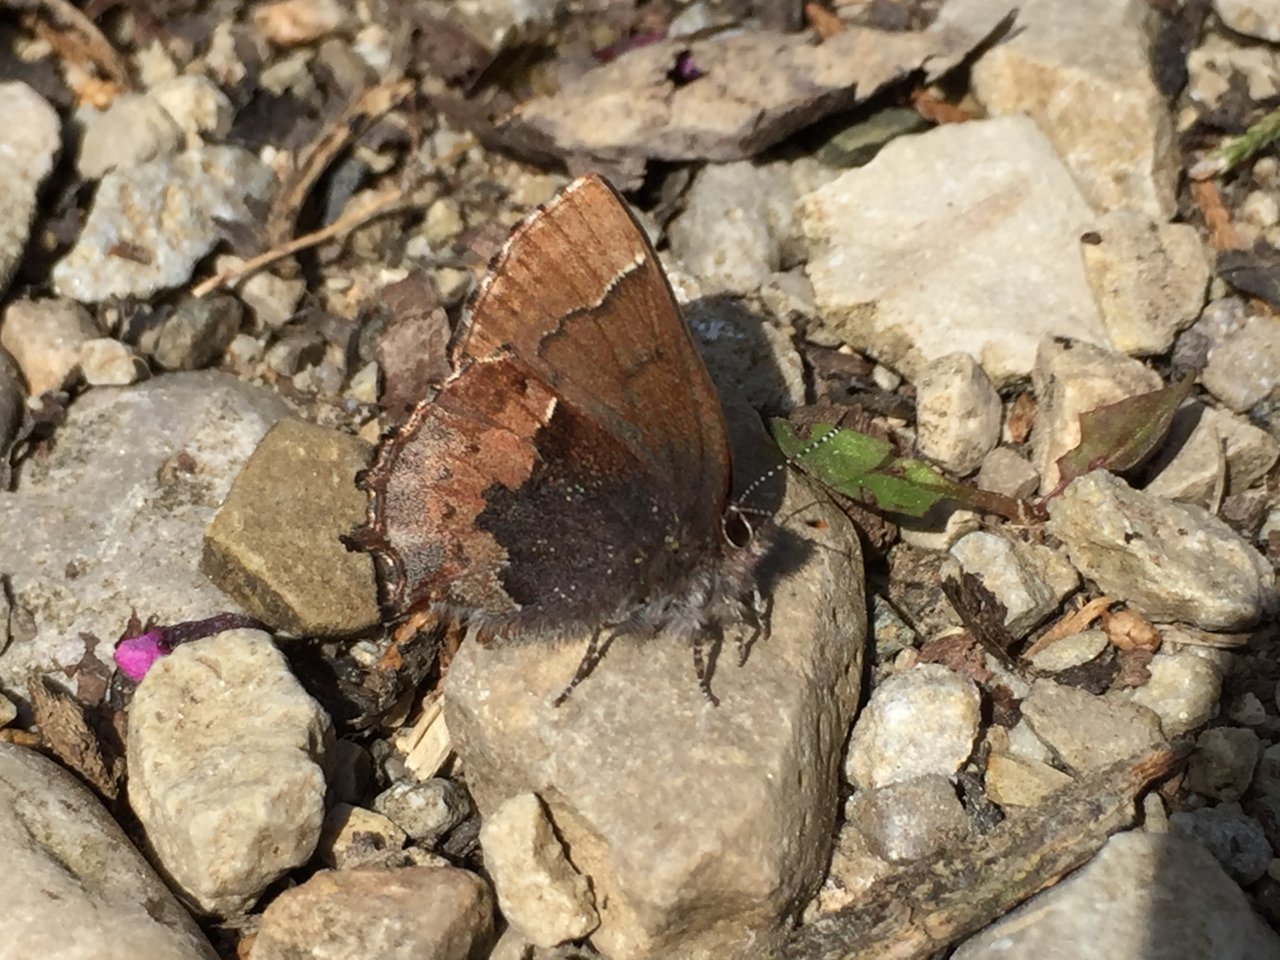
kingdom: Animalia
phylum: Arthropoda
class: Insecta
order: Lepidoptera
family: Lycaenidae
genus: Incisalia
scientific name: Incisalia henrici
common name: Henry's Elfin
